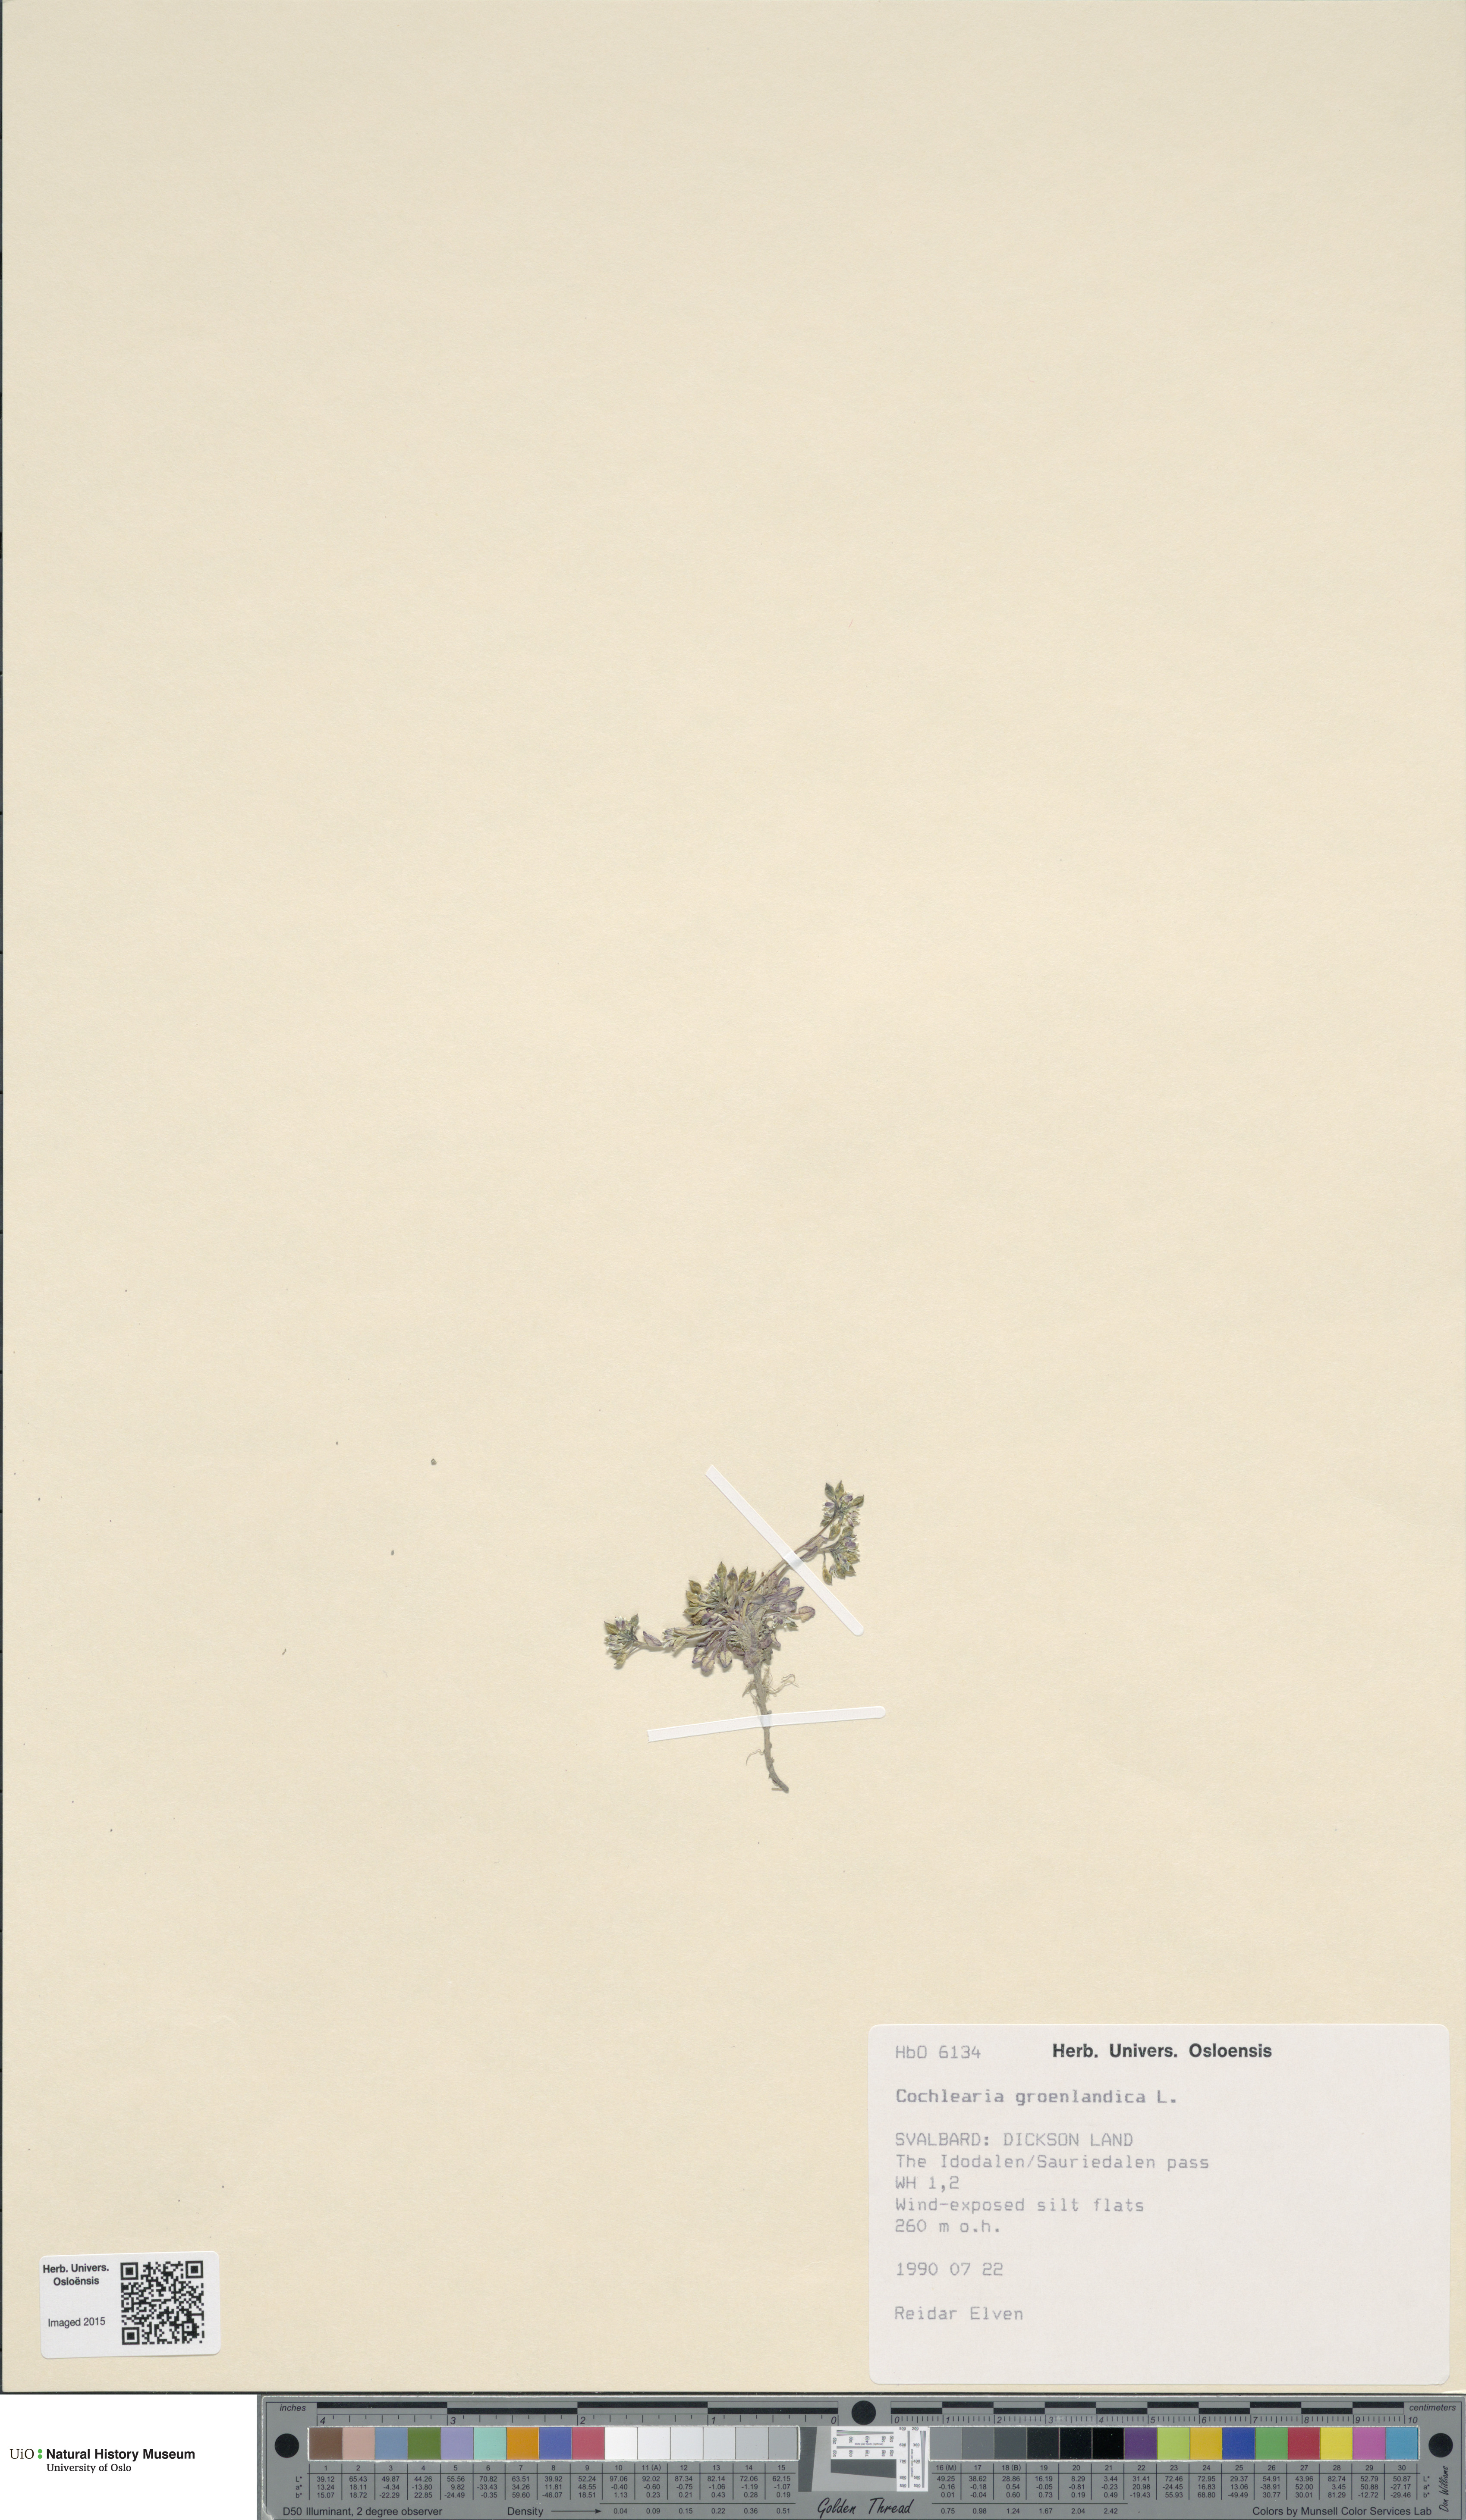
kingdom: Plantae
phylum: Tracheophyta
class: Magnoliopsida
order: Brassicales
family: Brassicaceae
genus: Cochlearia
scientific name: Cochlearia groenlandica
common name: Danish scurvygrass
